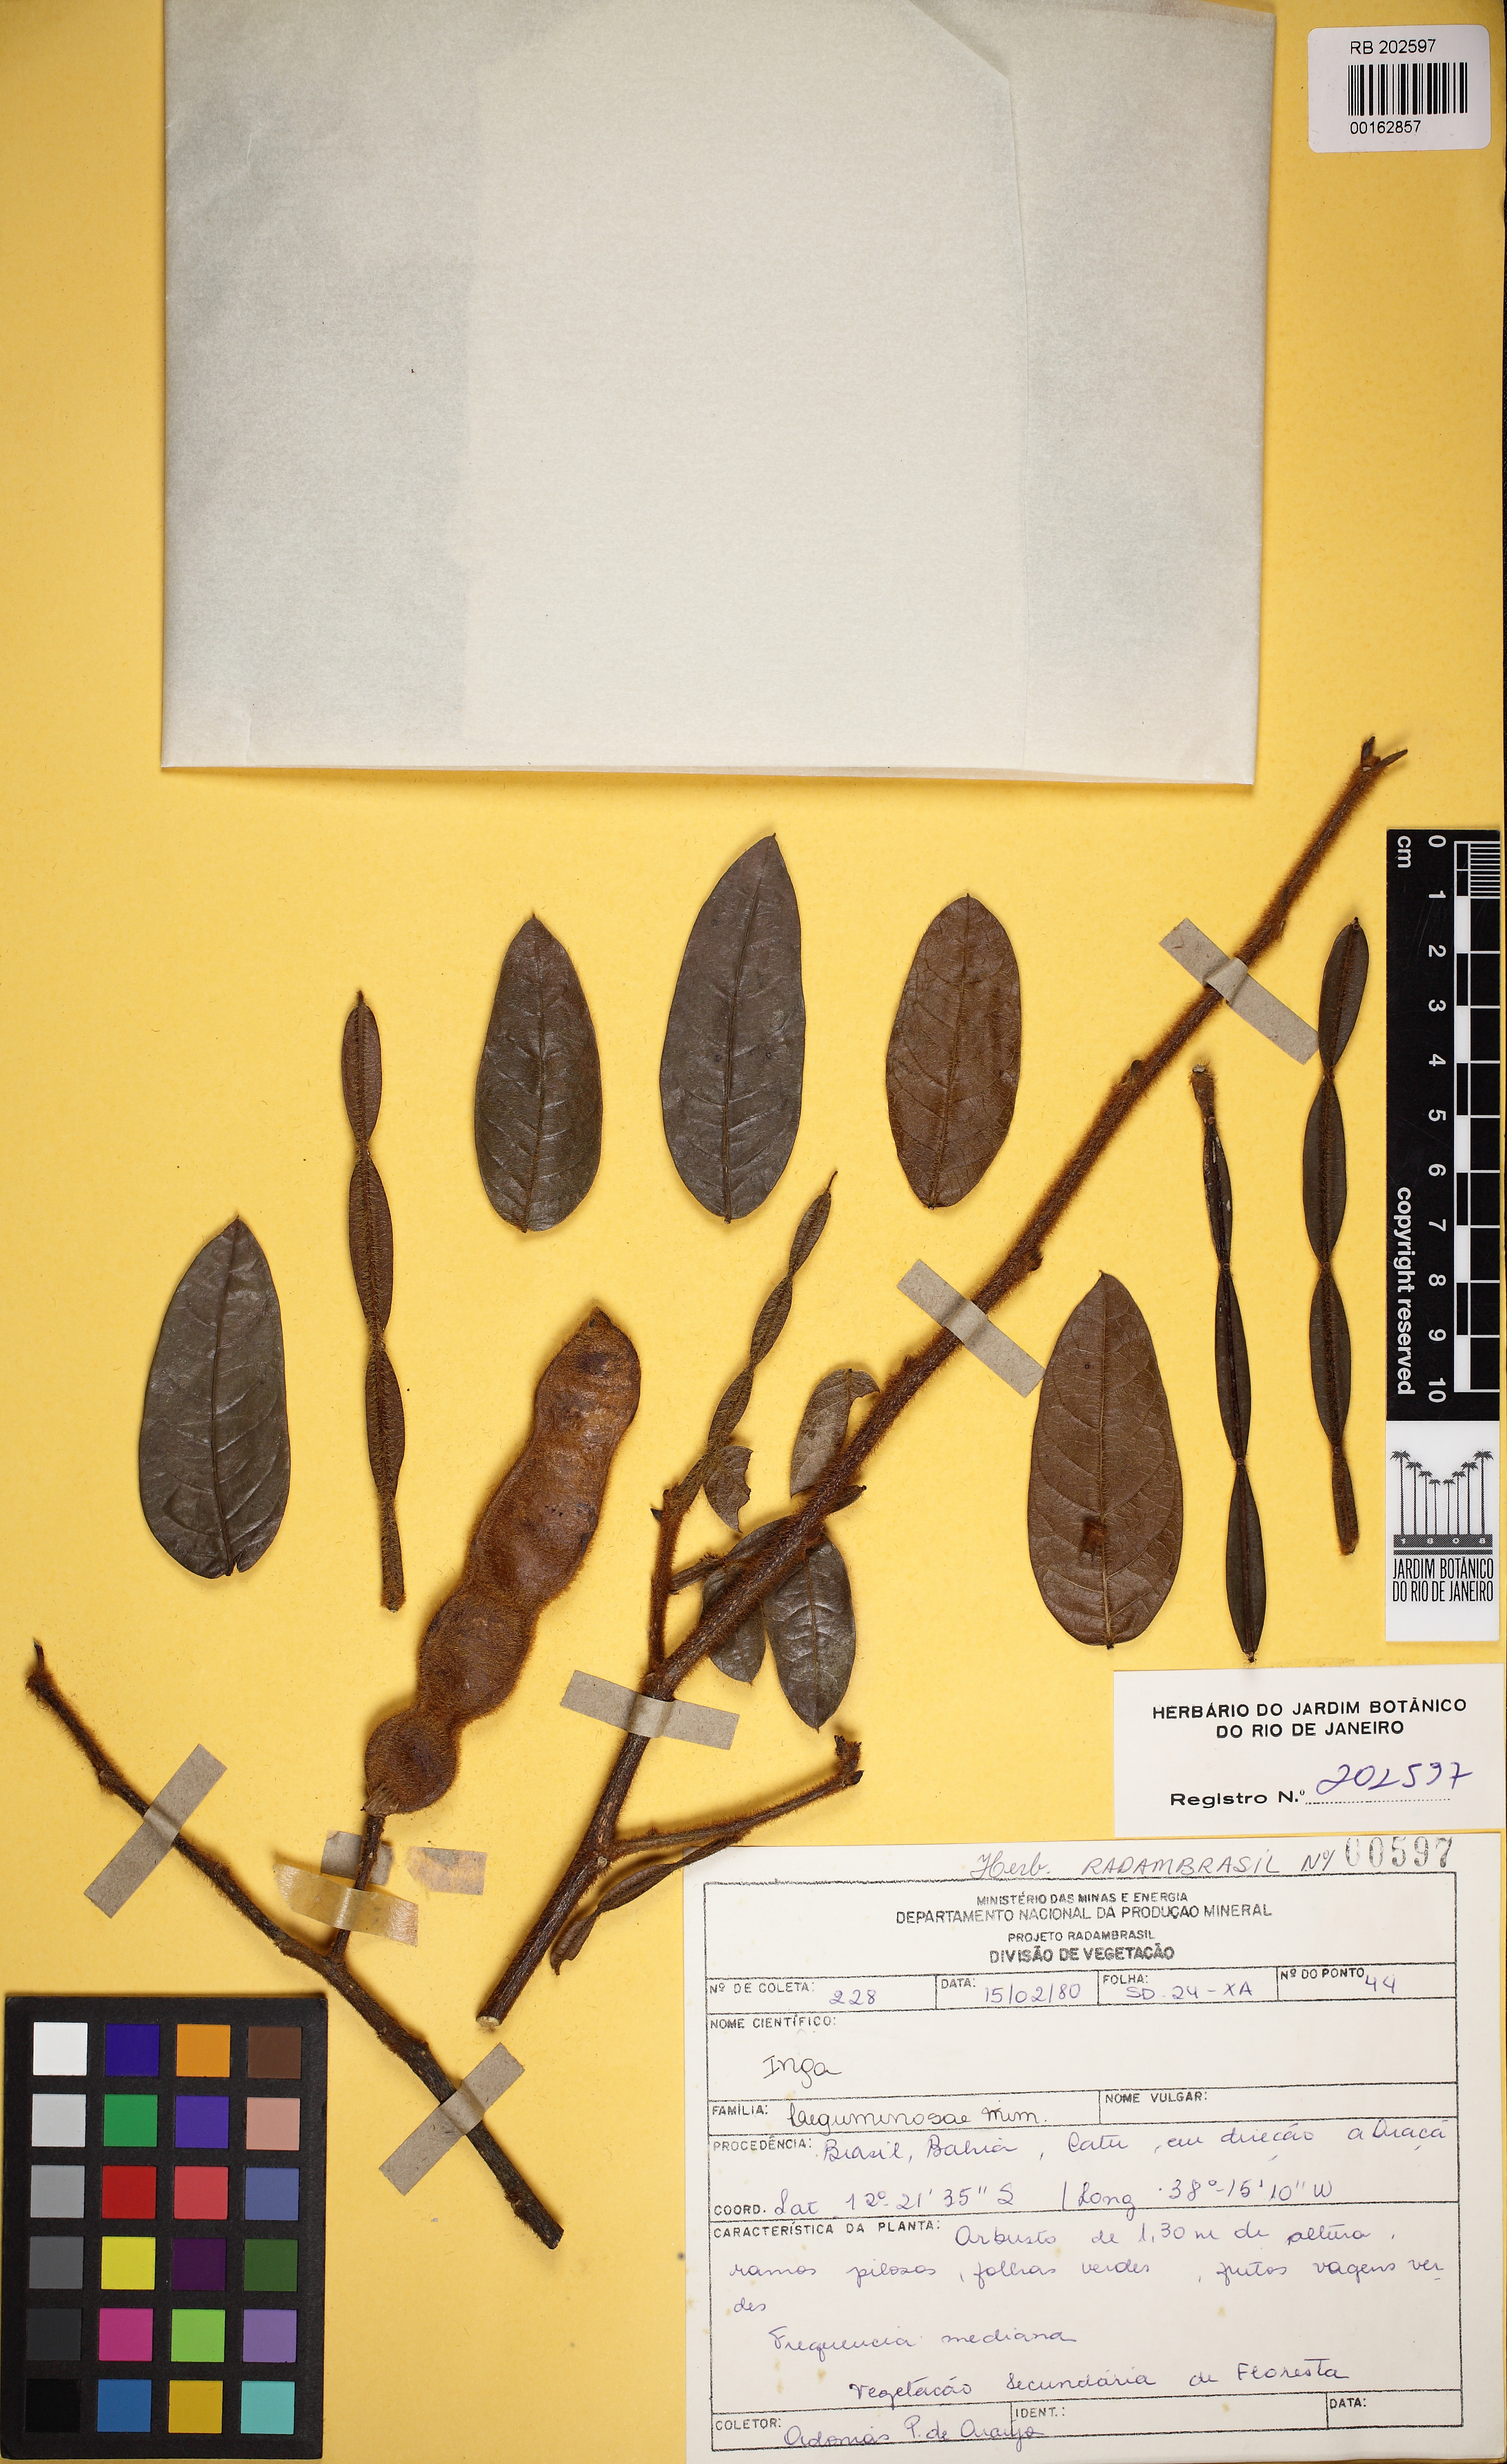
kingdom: Plantae
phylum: Tracheophyta
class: Magnoliopsida
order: Fabales
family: Fabaceae
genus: Inga
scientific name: Inga leptantha
